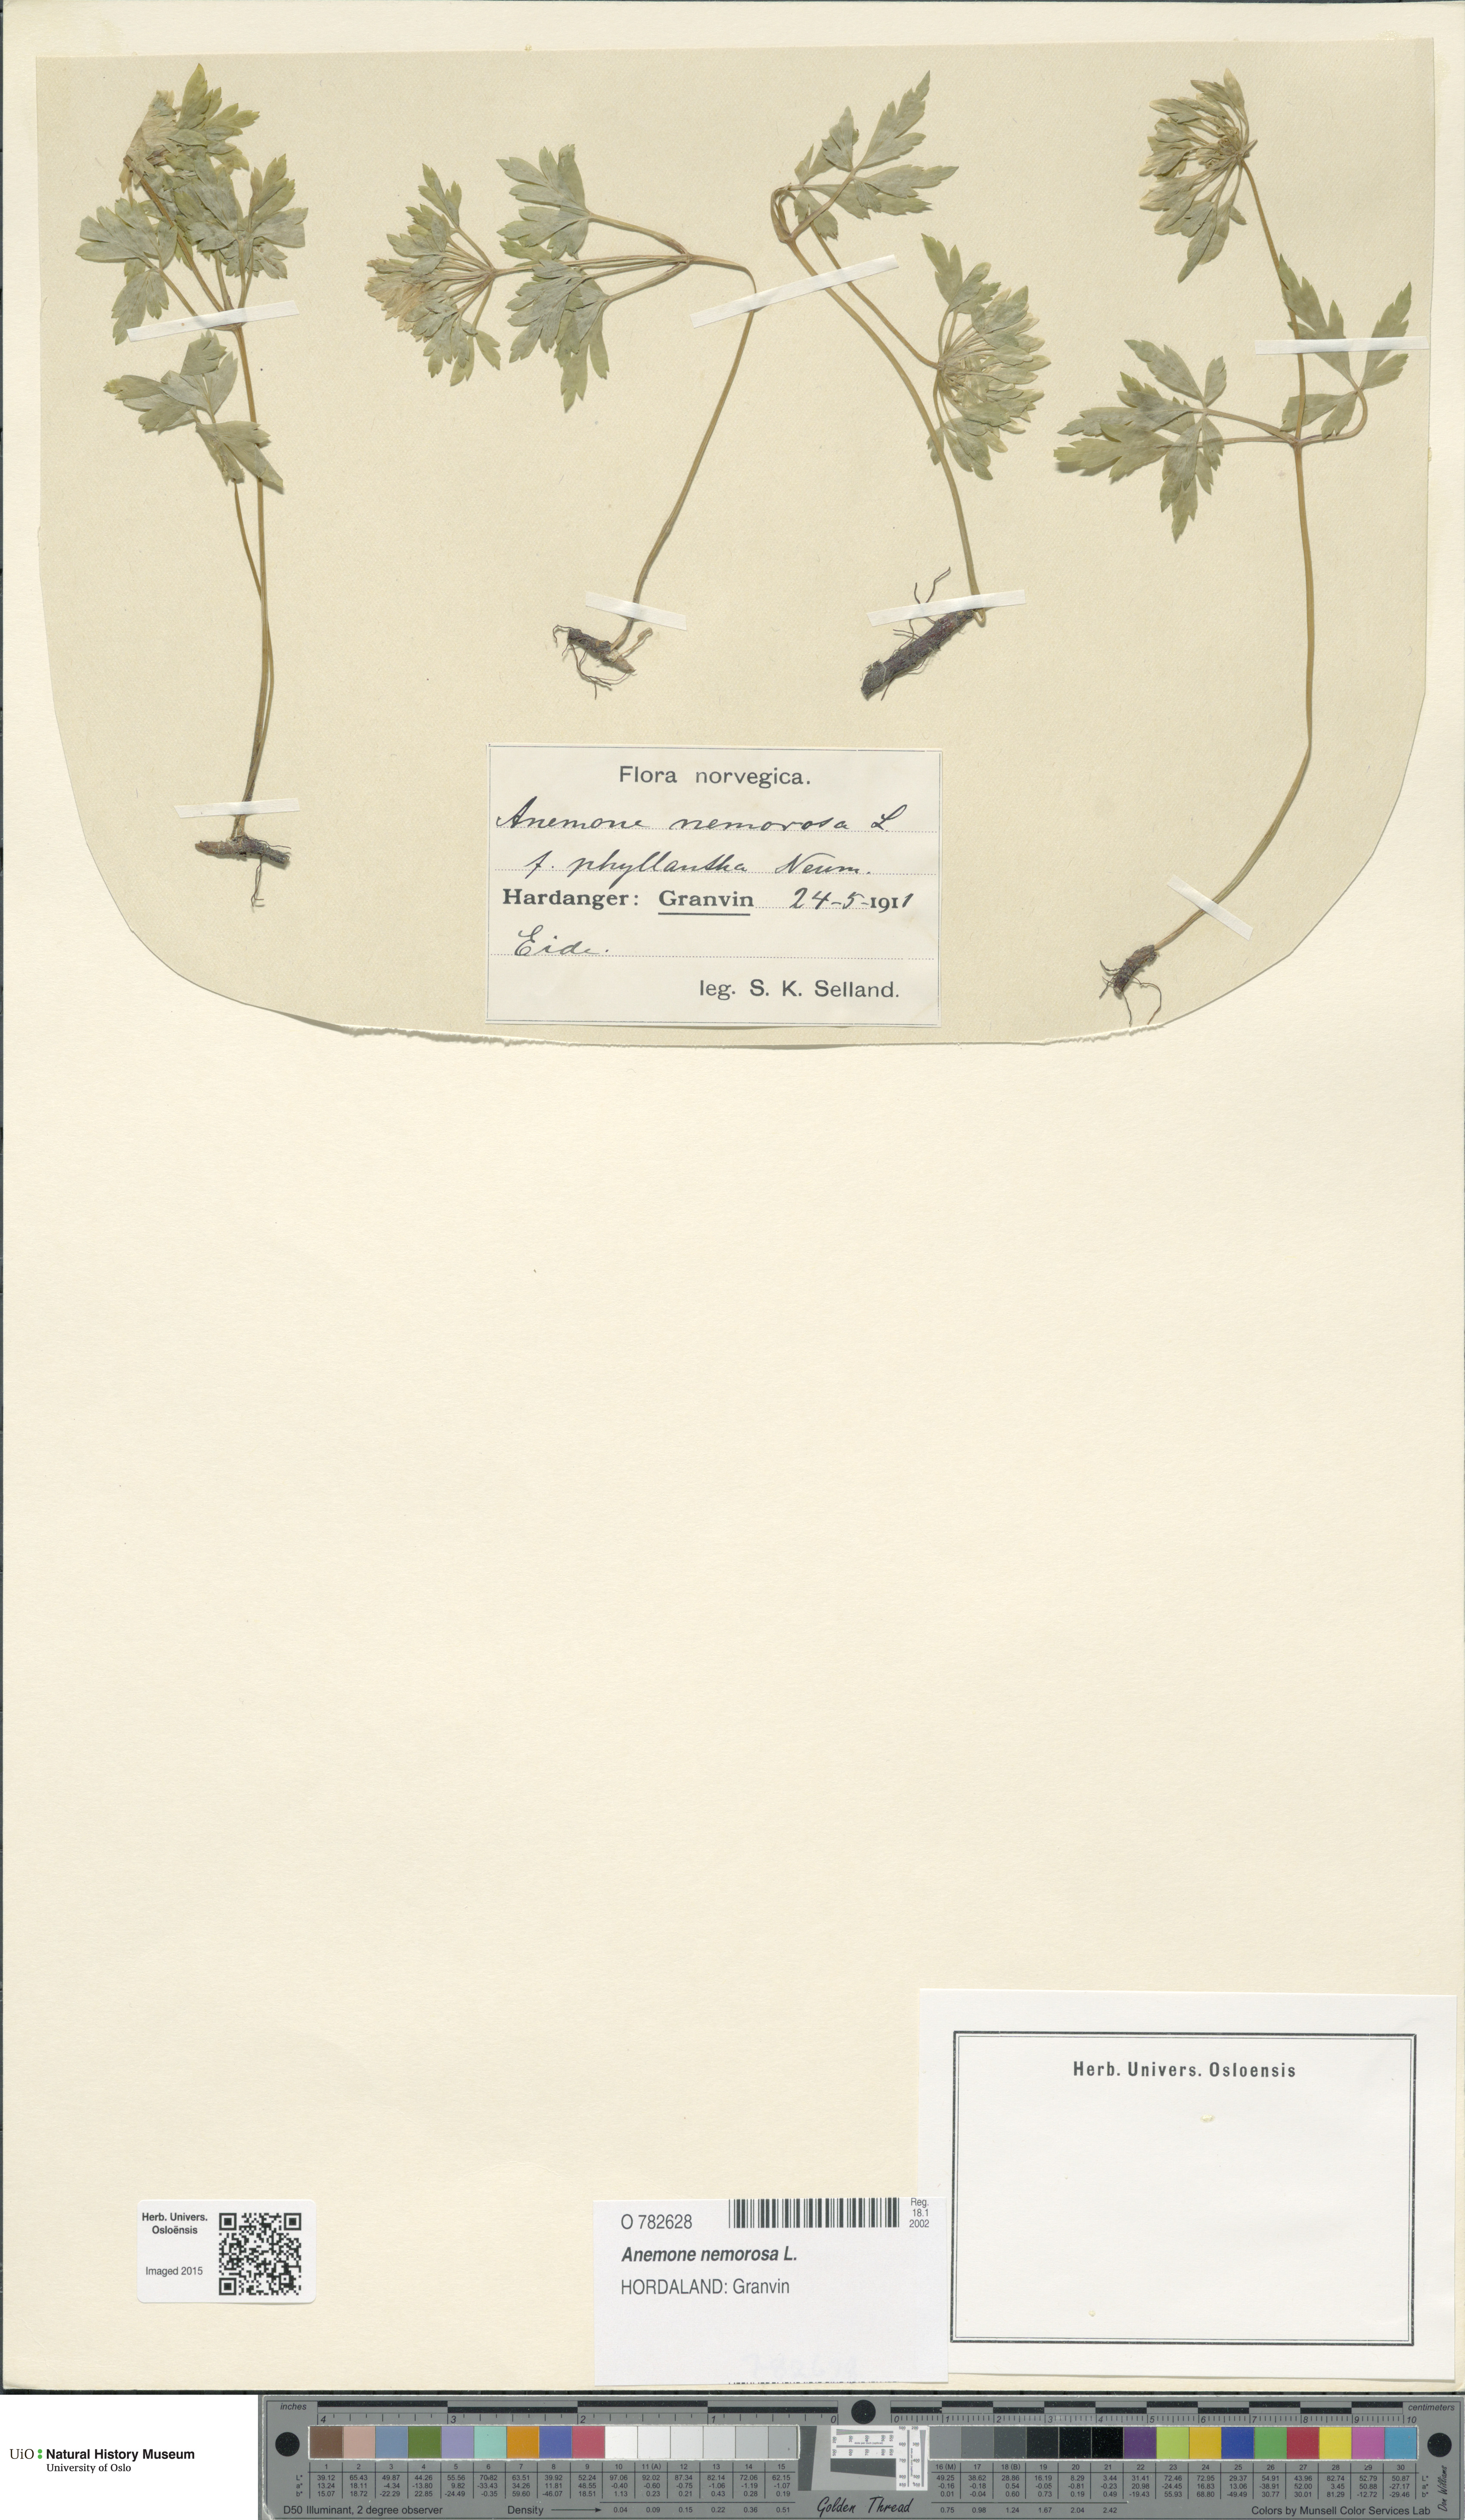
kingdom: Plantae
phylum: Tracheophyta
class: Magnoliopsida
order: Ranunculales
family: Ranunculaceae
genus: Anemone
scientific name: Anemone nemorosa
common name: Wood anemone
